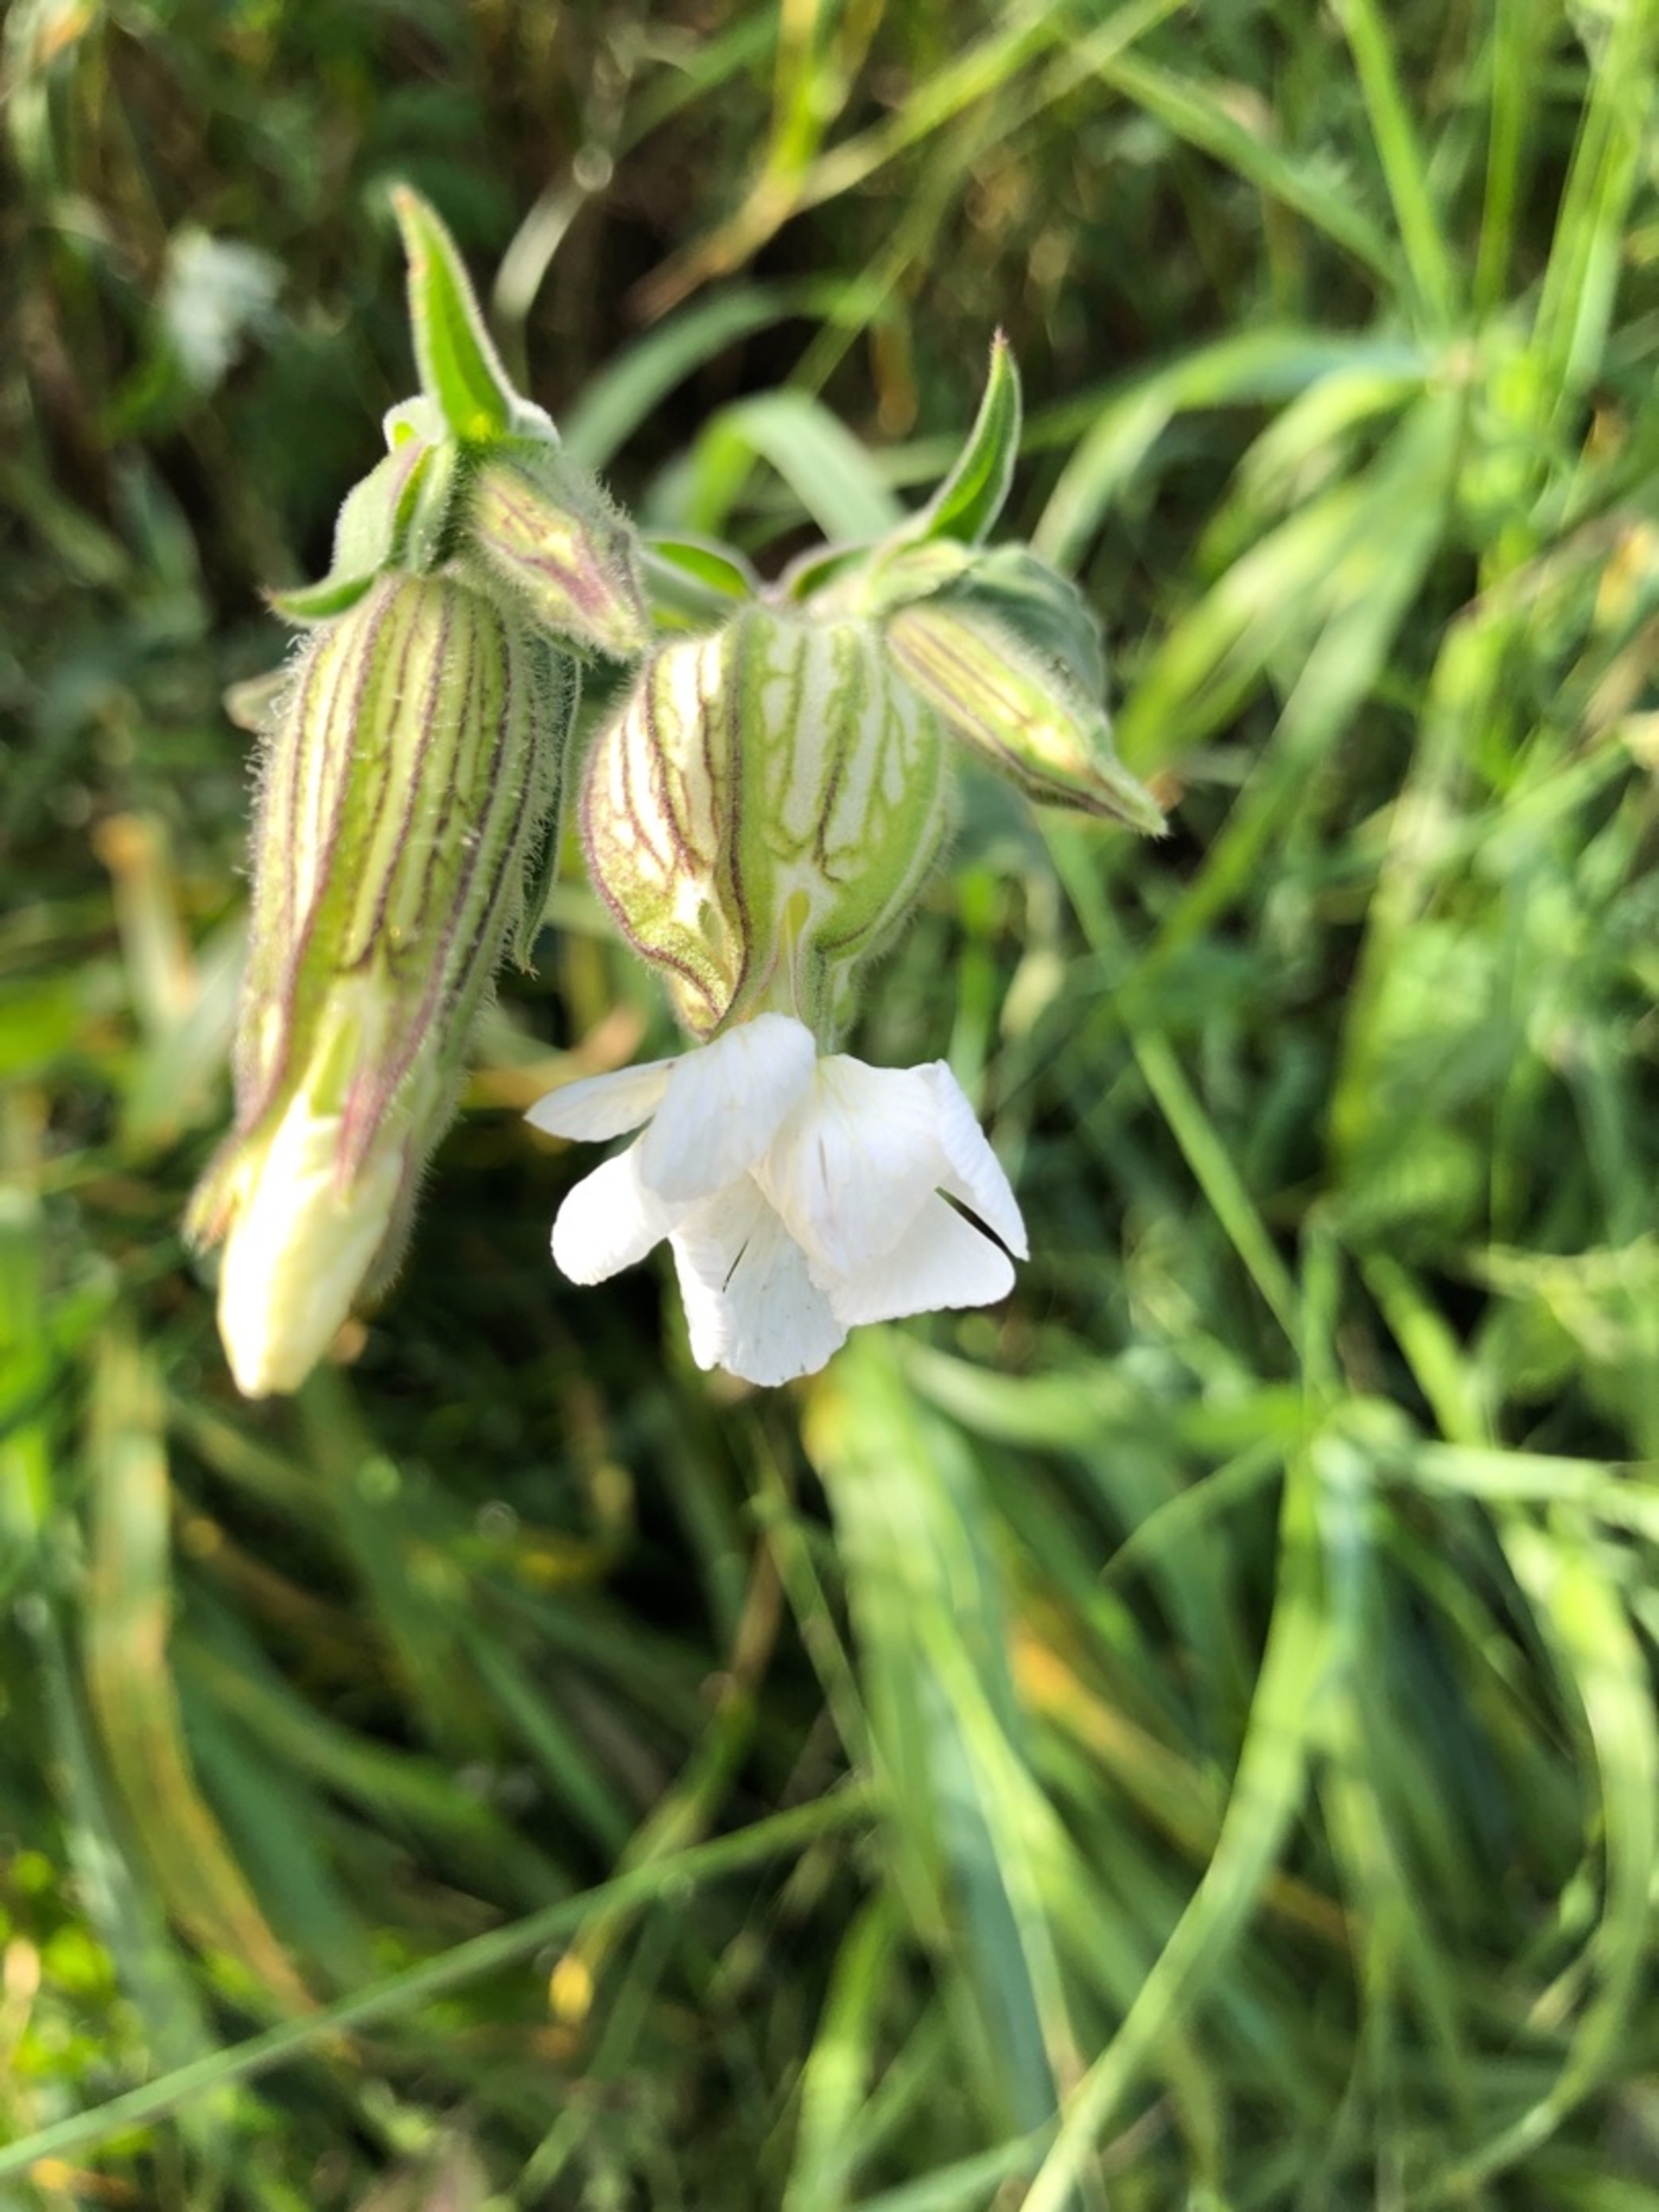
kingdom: Plantae
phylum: Tracheophyta
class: Magnoliopsida
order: Caryophyllales
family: Caryophyllaceae
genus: Silene
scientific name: Silene latifolia
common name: Aftenpragtstjerne
